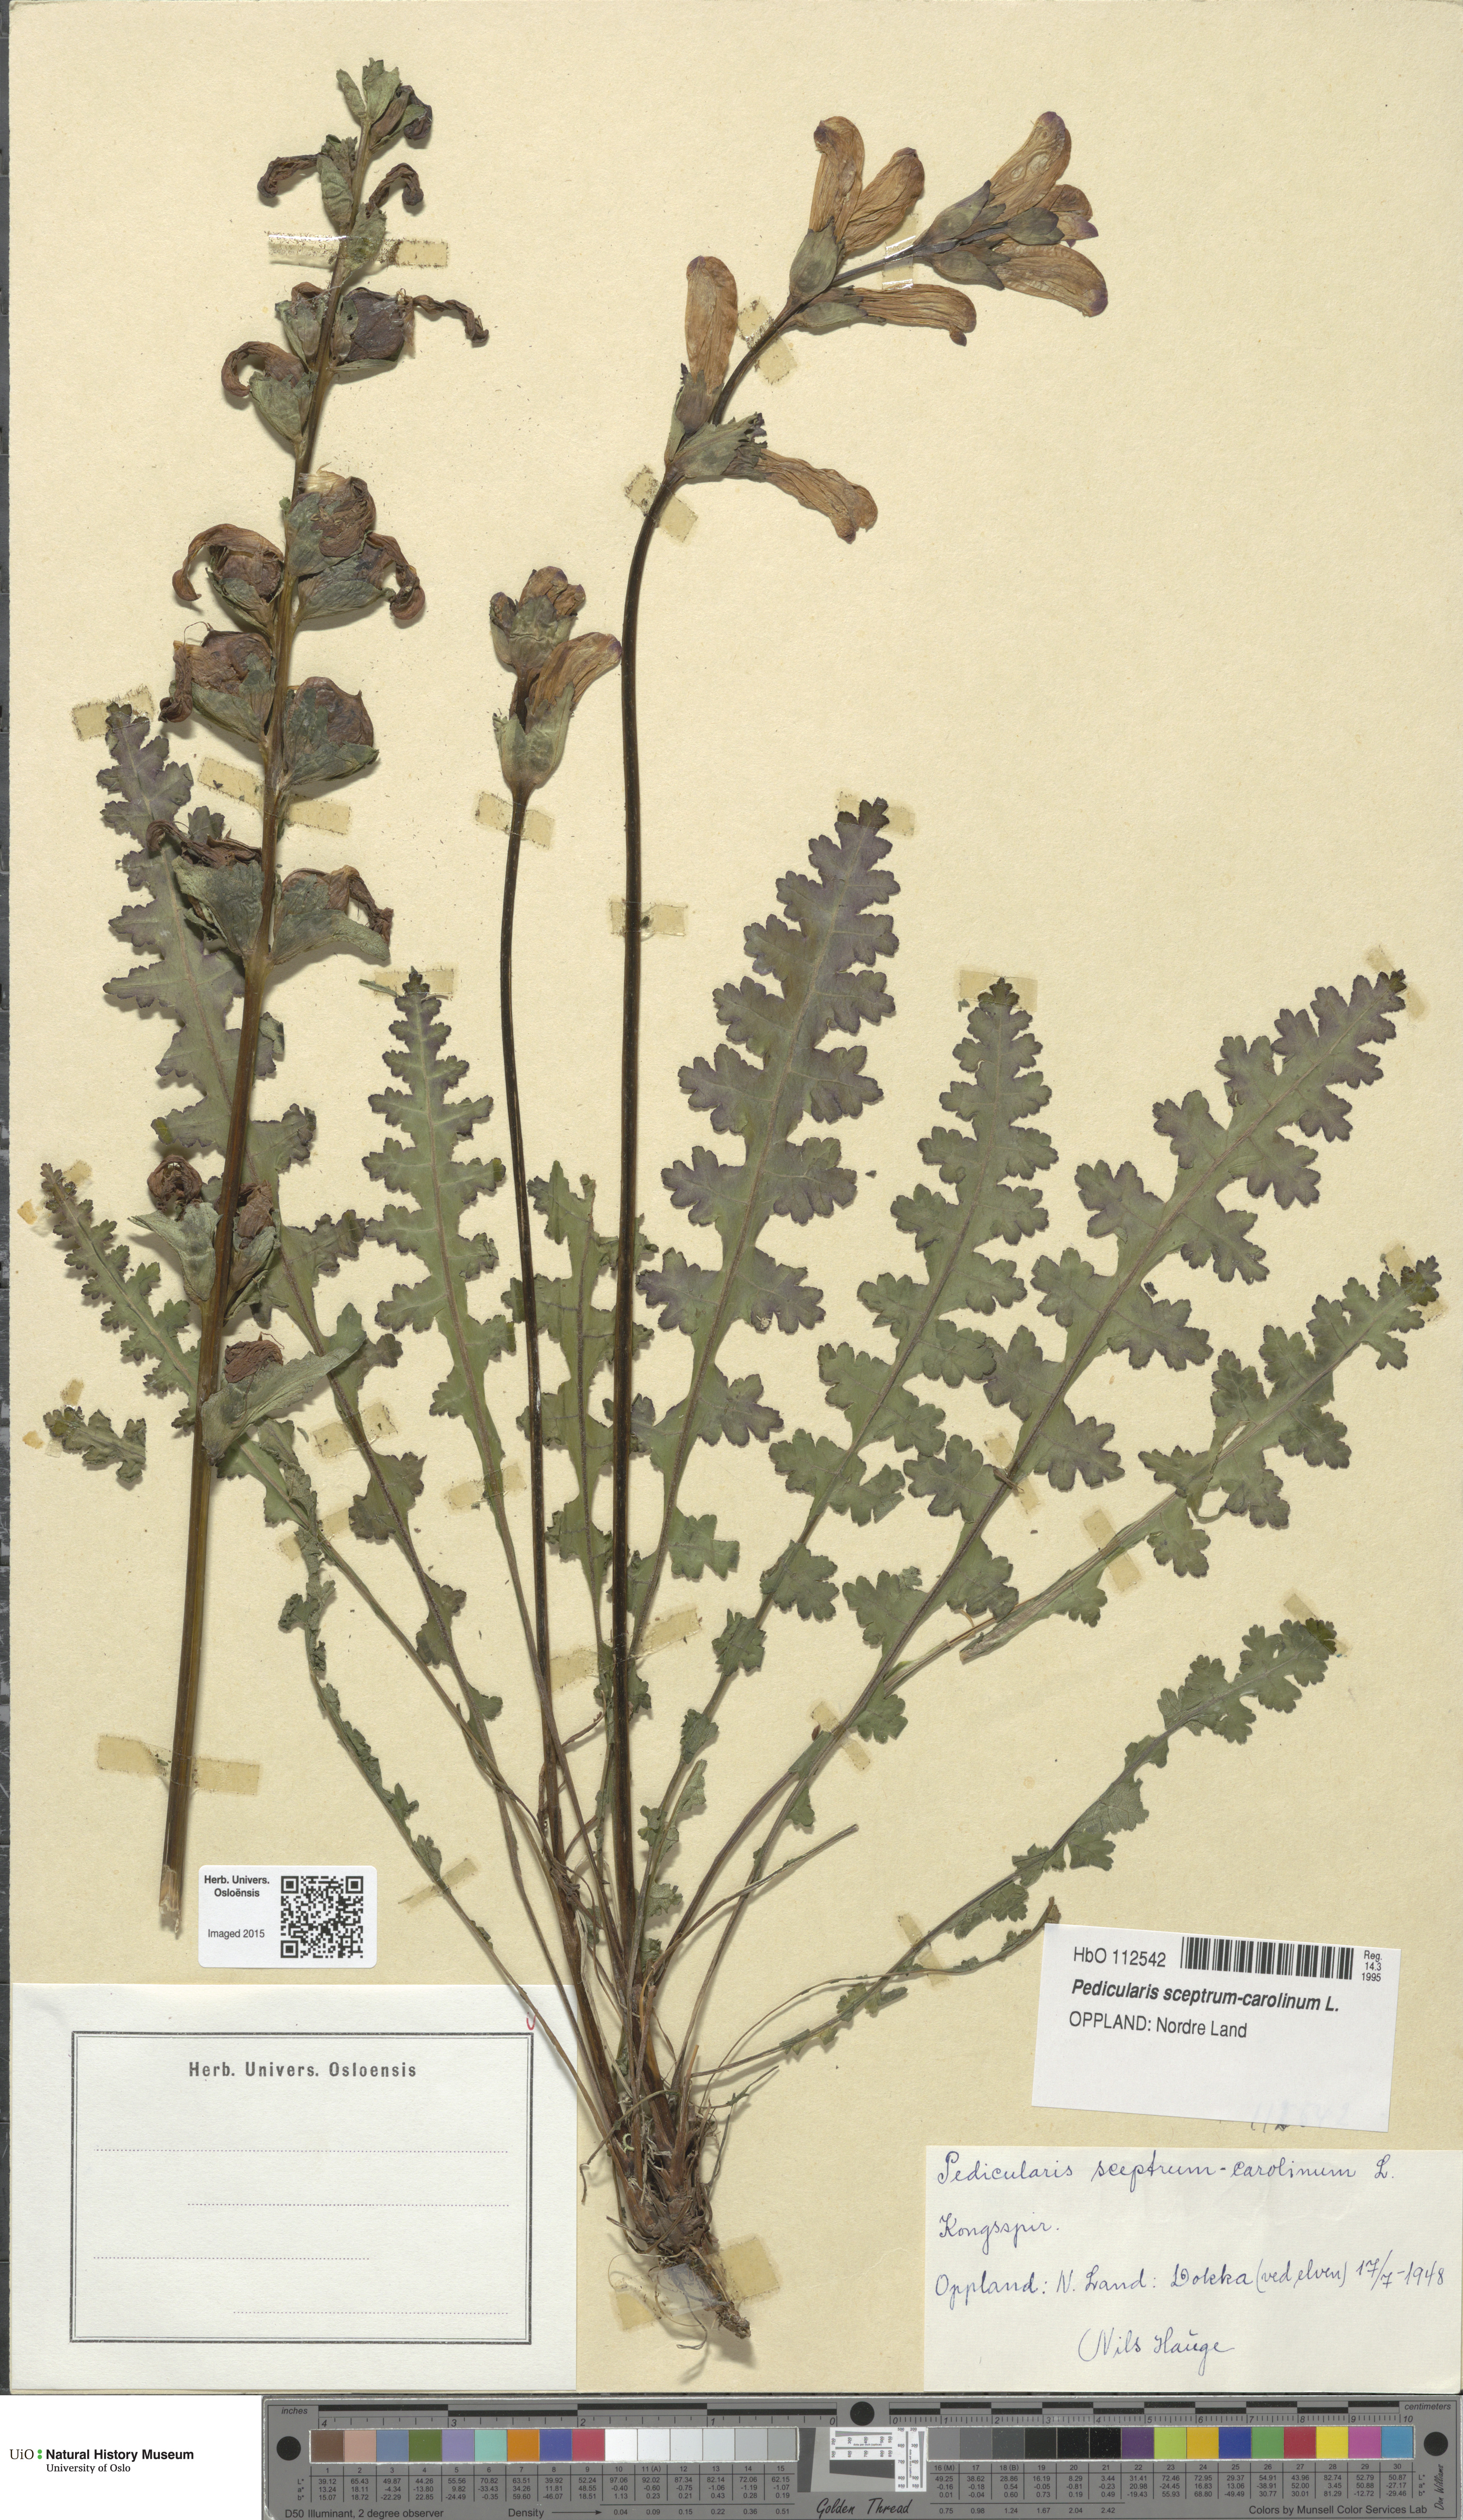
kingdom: Plantae
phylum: Tracheophyta
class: Magnoliopsida
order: Lamiales
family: Orobanchaceae
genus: Pedicularis
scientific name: Pedicularis sceptrum-carolinum
